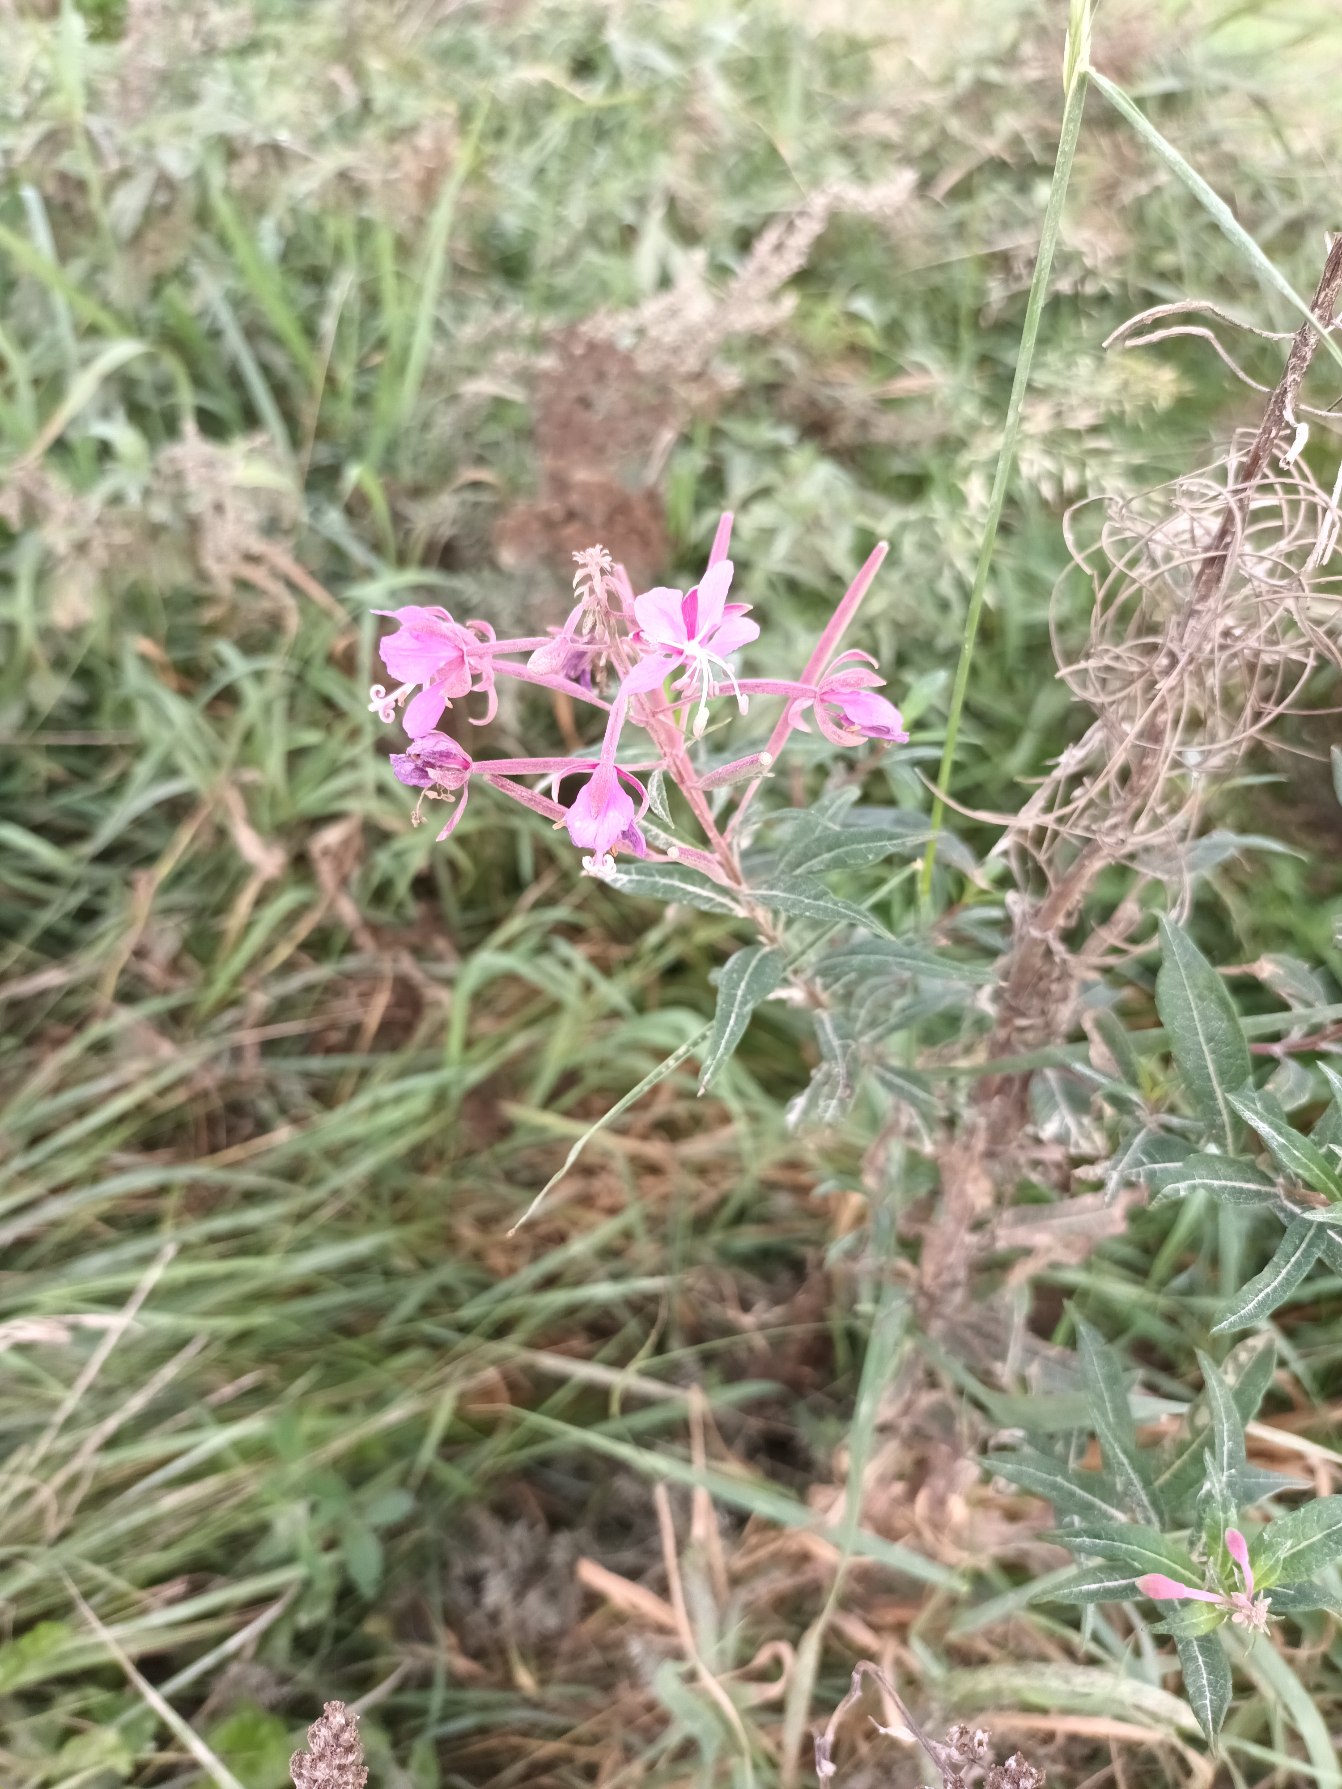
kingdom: Plantae
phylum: Tracheophyta
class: Magnoliopsida
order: Myrtales
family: Onagraceae
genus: Chamaenerion
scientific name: Chamaenerion angustifolium
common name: Gederams
